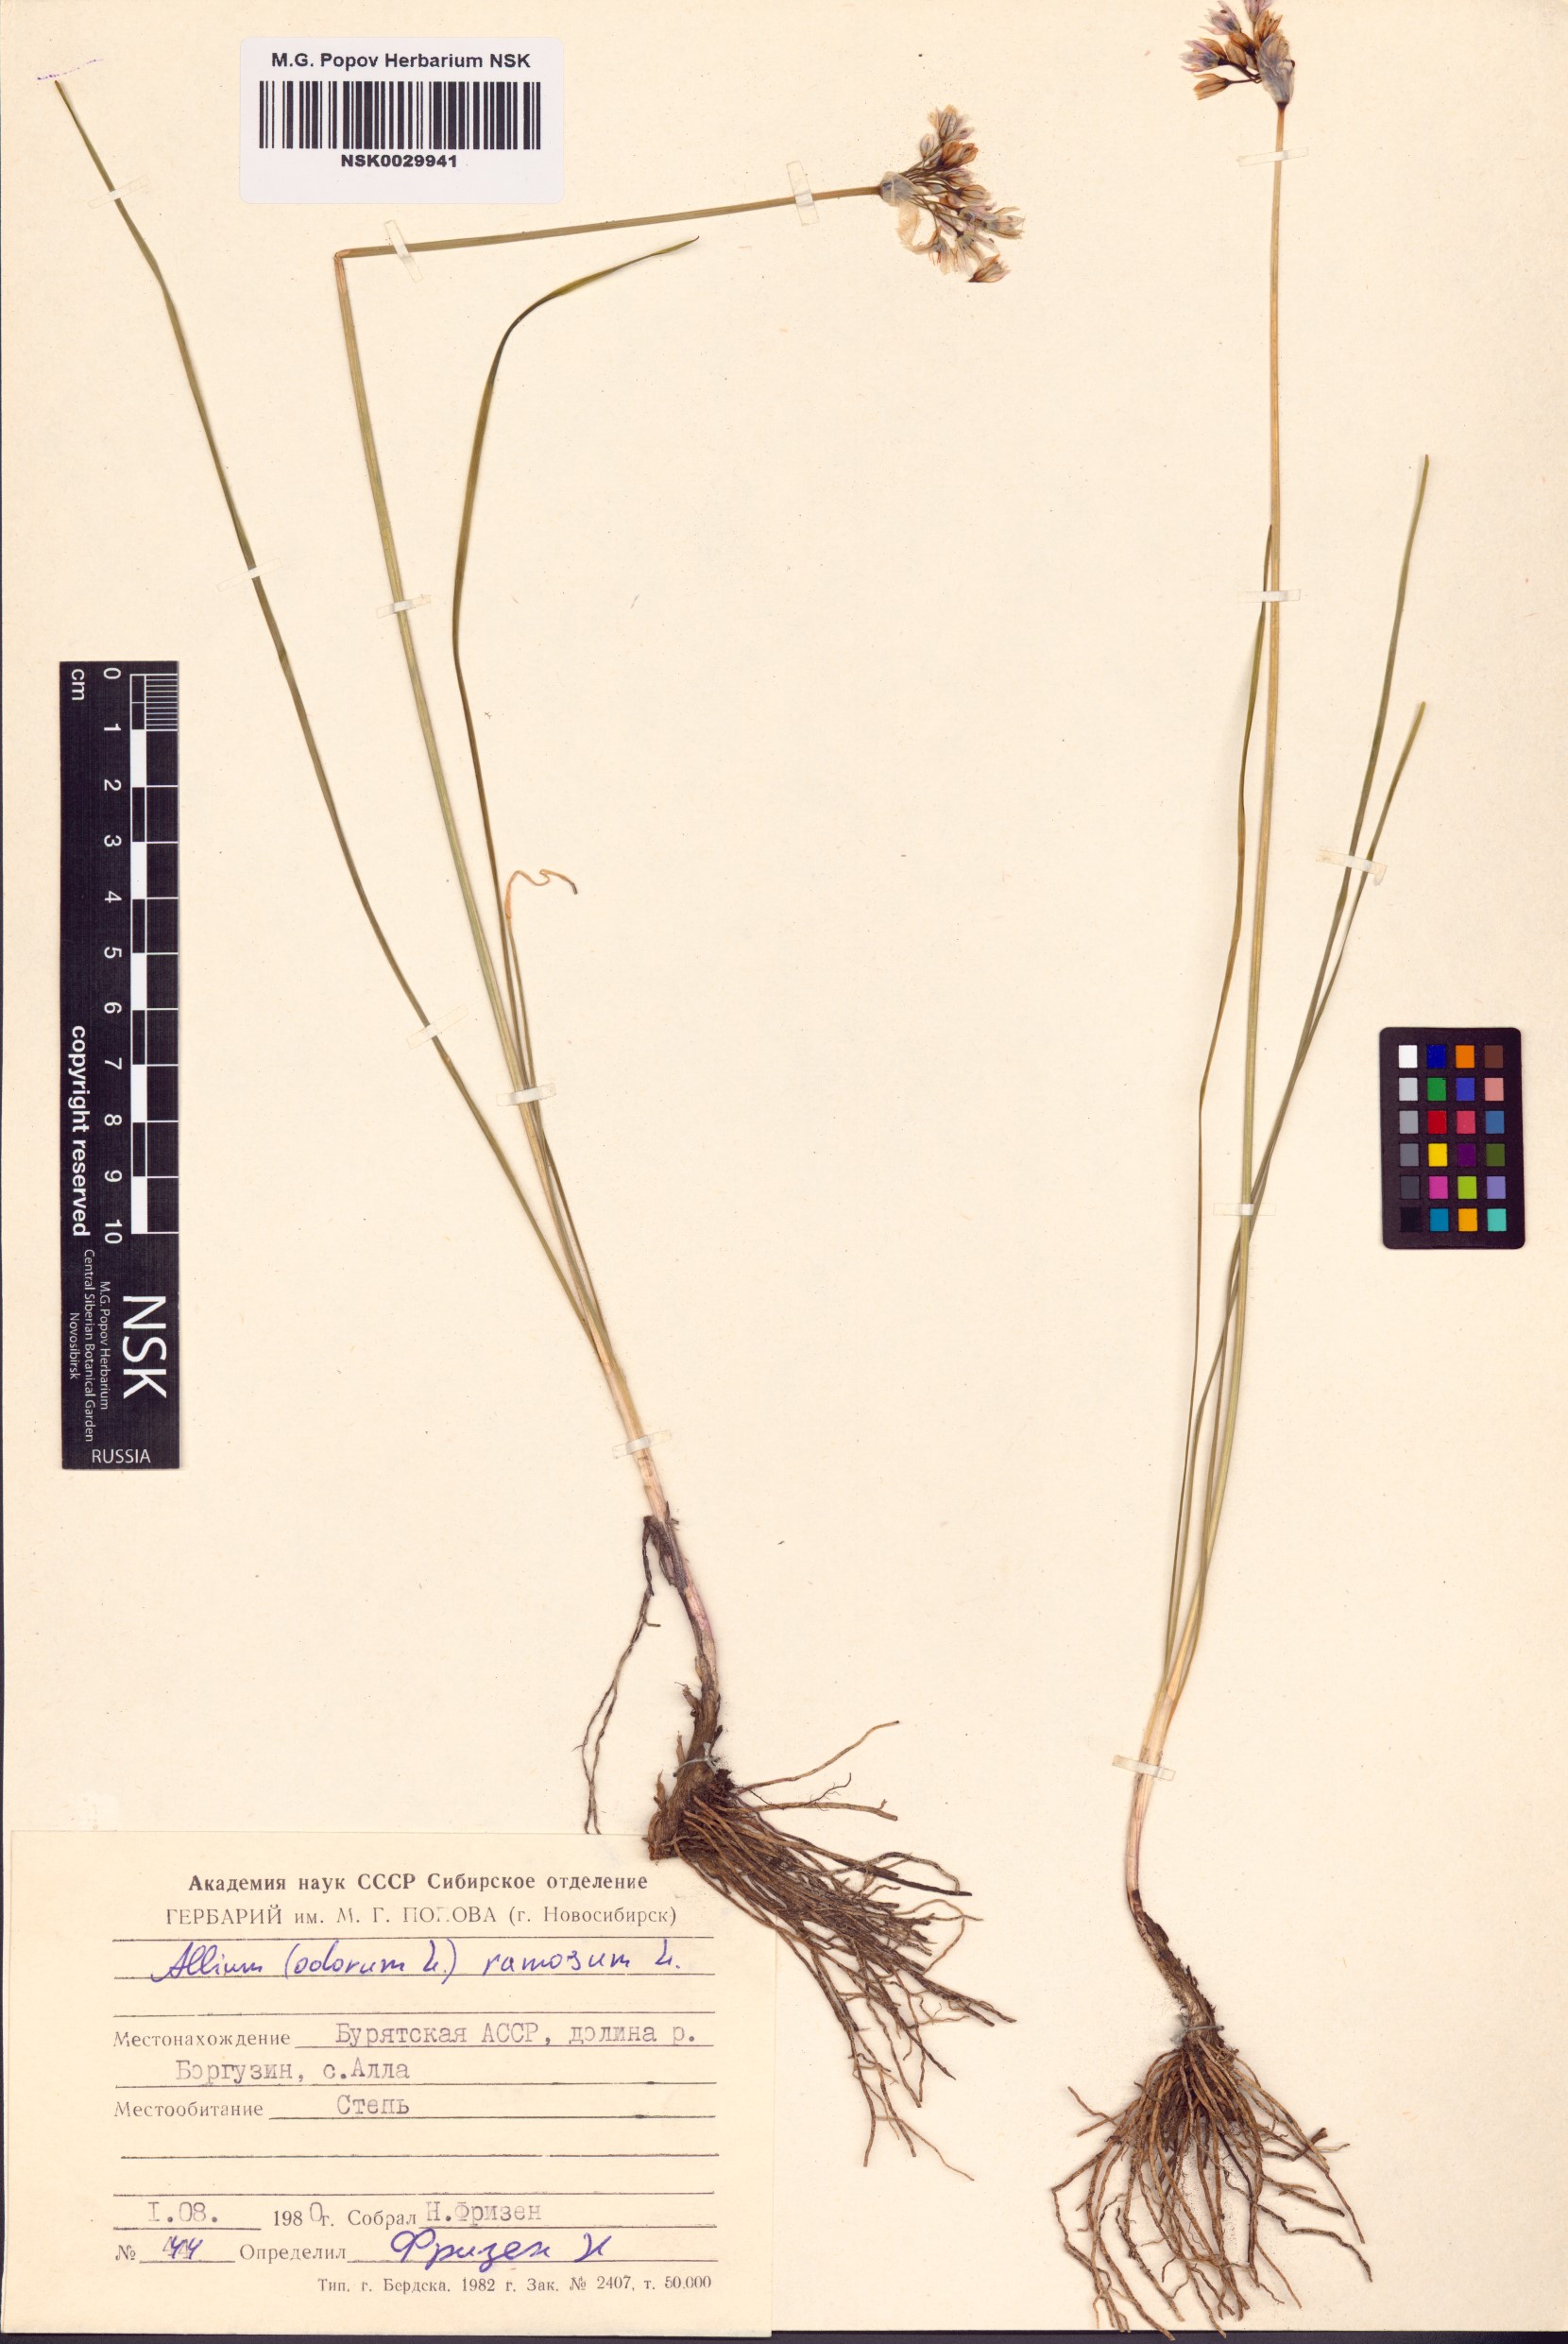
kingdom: Plantae
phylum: Tracheophyta
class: Liliopsida
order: Asparagales
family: Amaryllidaceae
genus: Allium
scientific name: Allium ramosum
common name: Fragrant garlic
